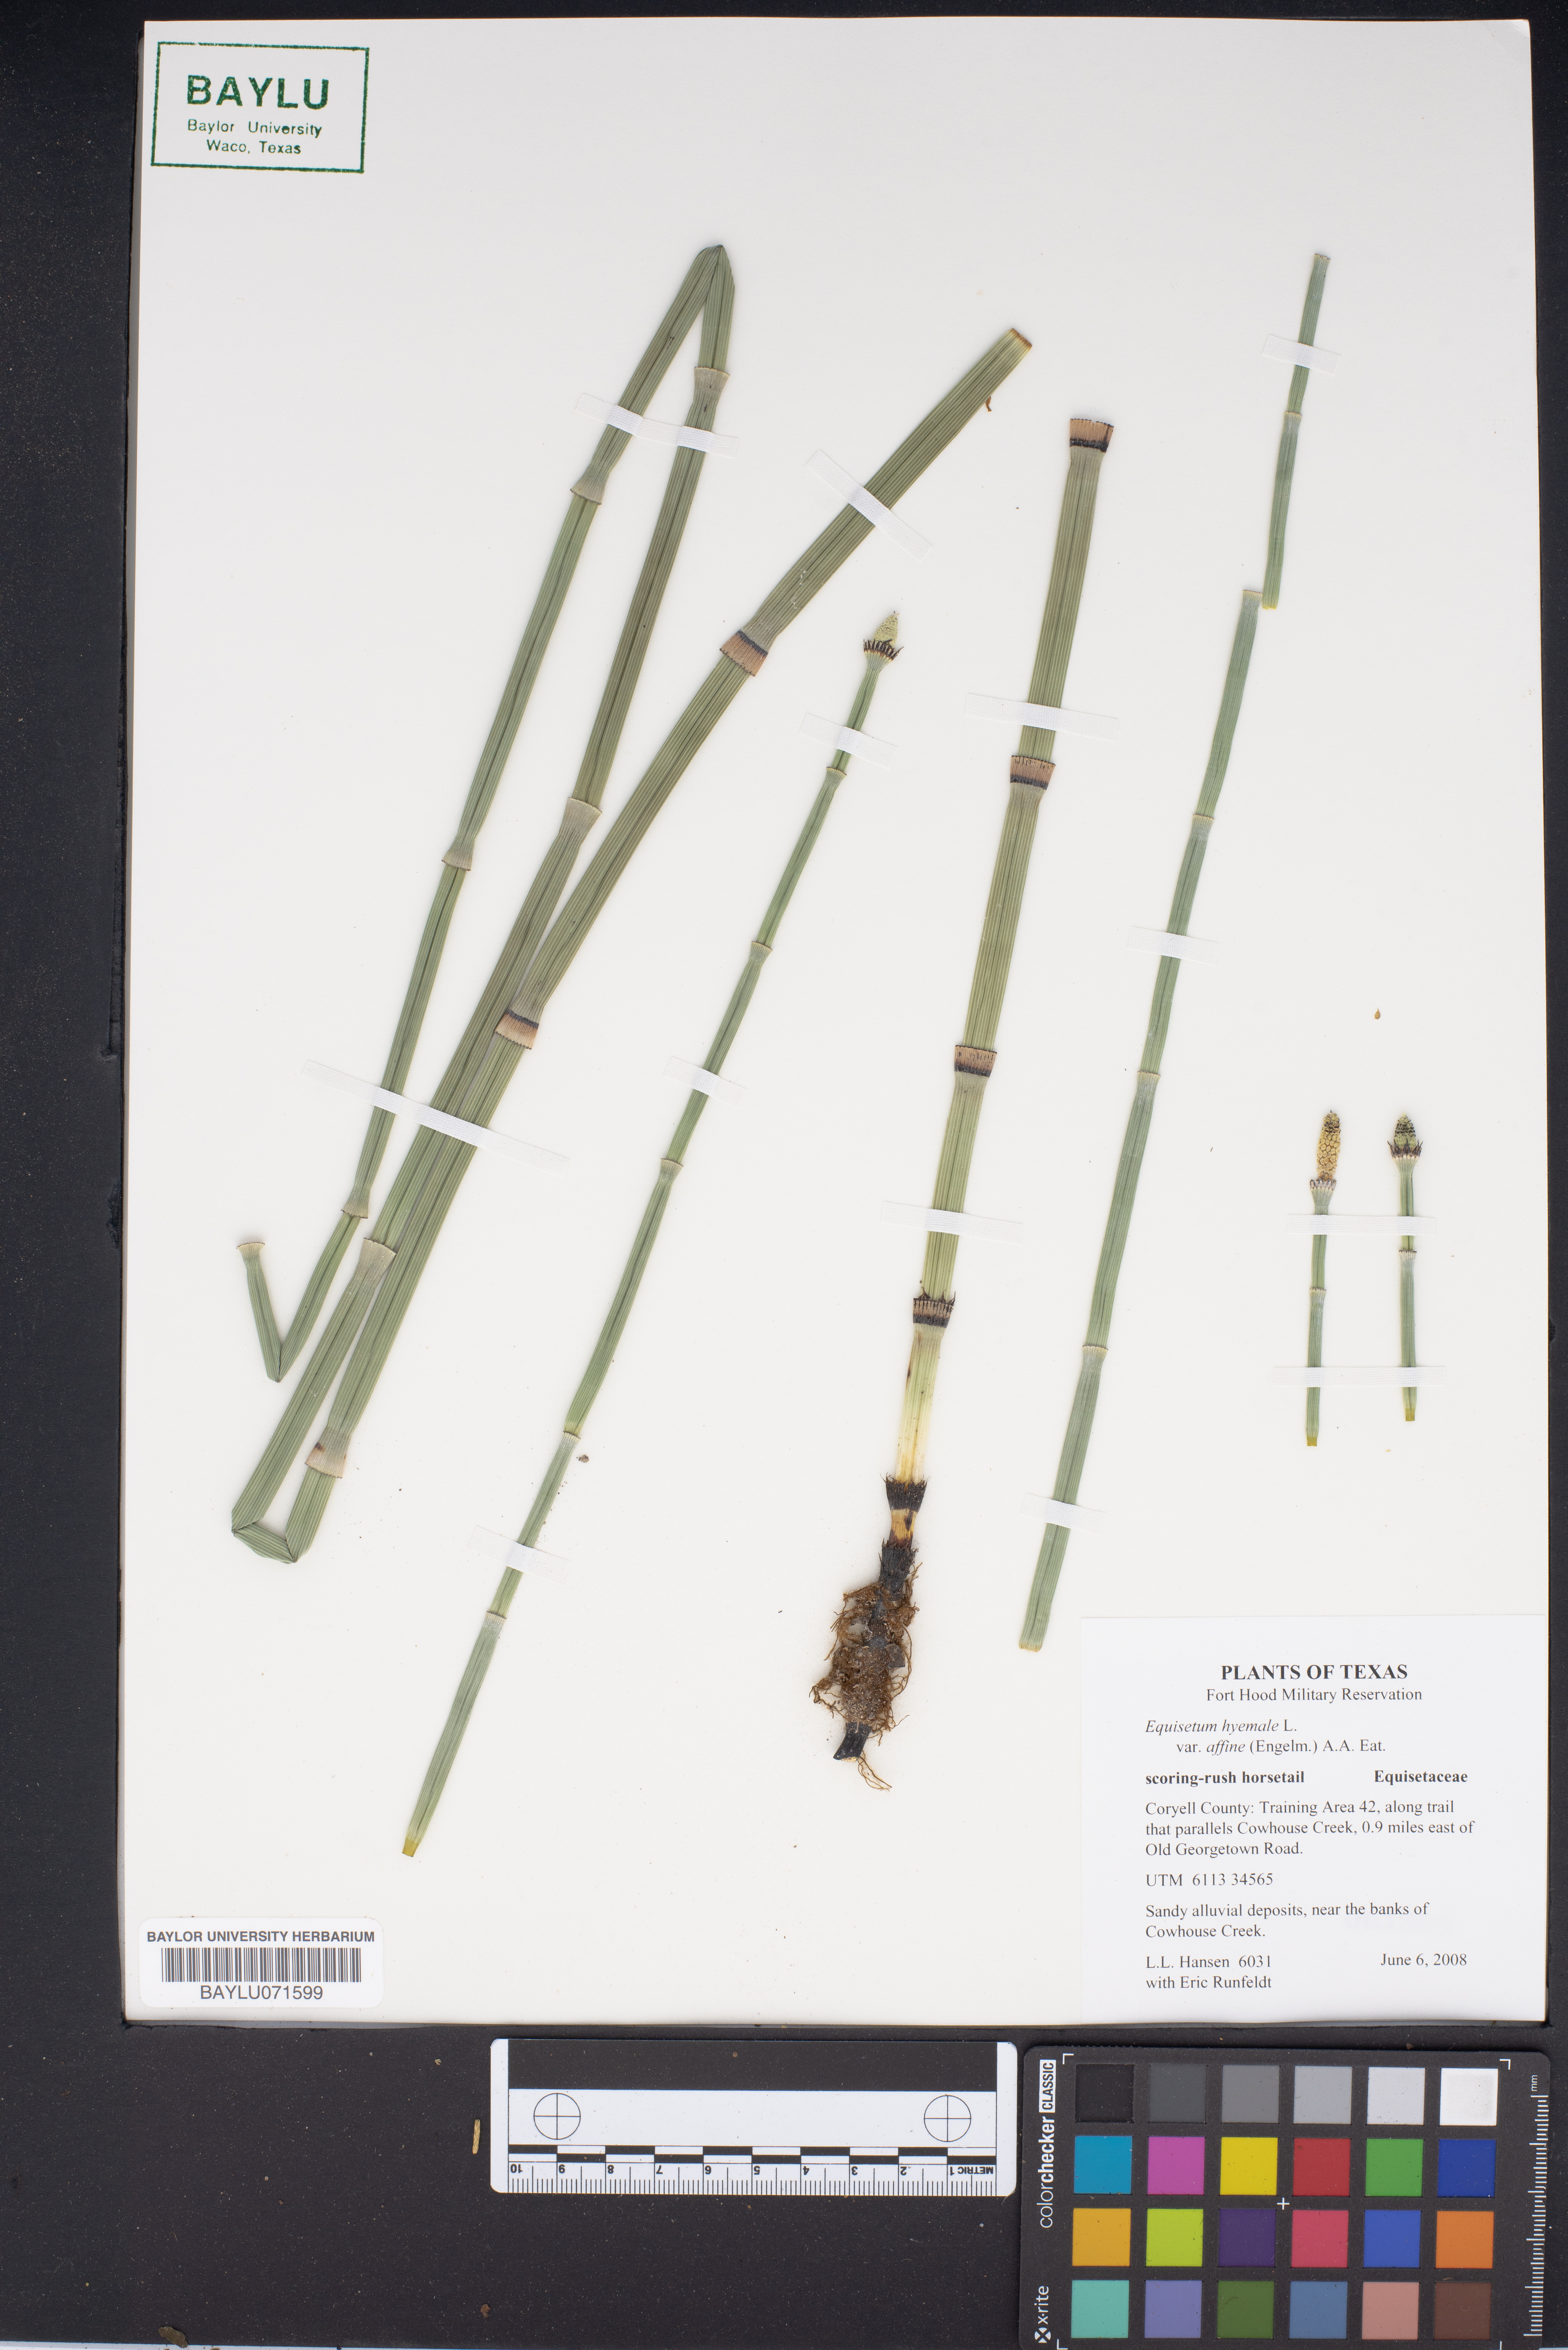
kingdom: Plantae
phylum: Tracheophyta
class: Polypodiopsida
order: Equisetales
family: Equisetaceae
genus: Equisetum
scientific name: Equisetum hyemale
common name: Rough horsetail
